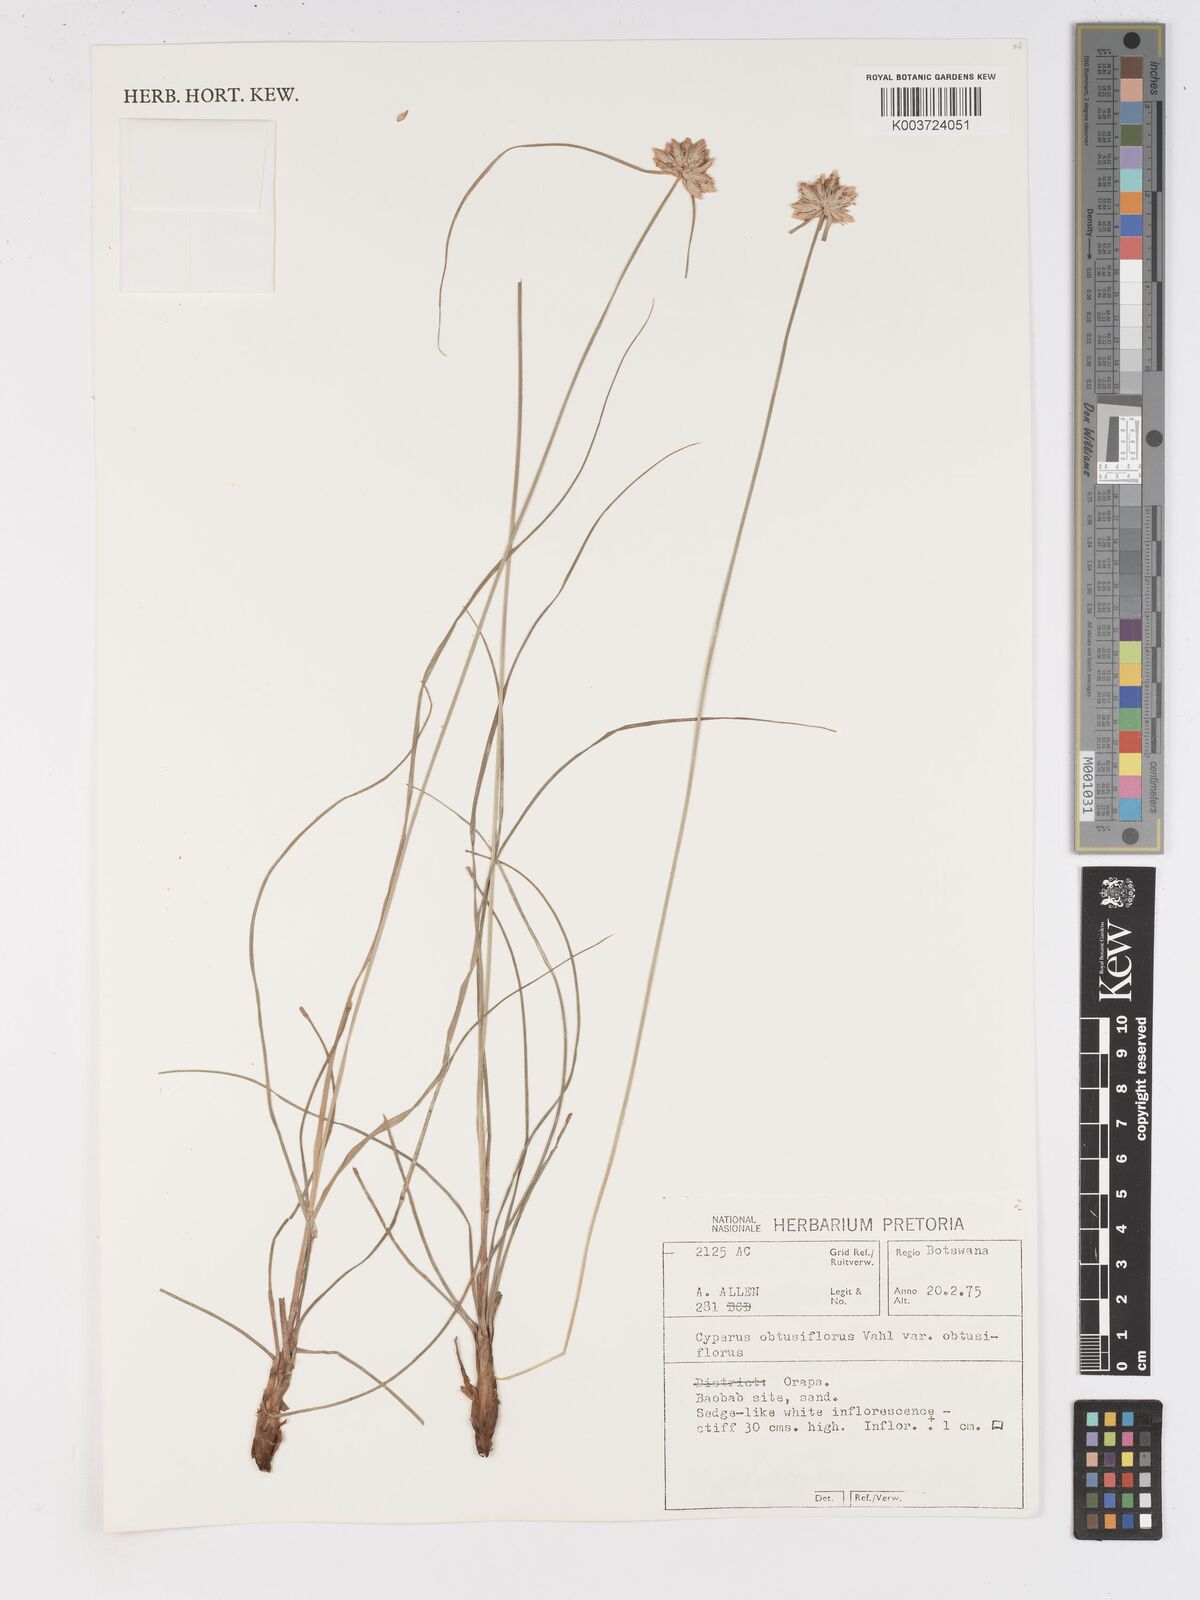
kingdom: Plantae
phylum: Tracheophyta
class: Liliopsida
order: Poales
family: Cyperaceae
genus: Cyperus
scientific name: Cyperus niveus
